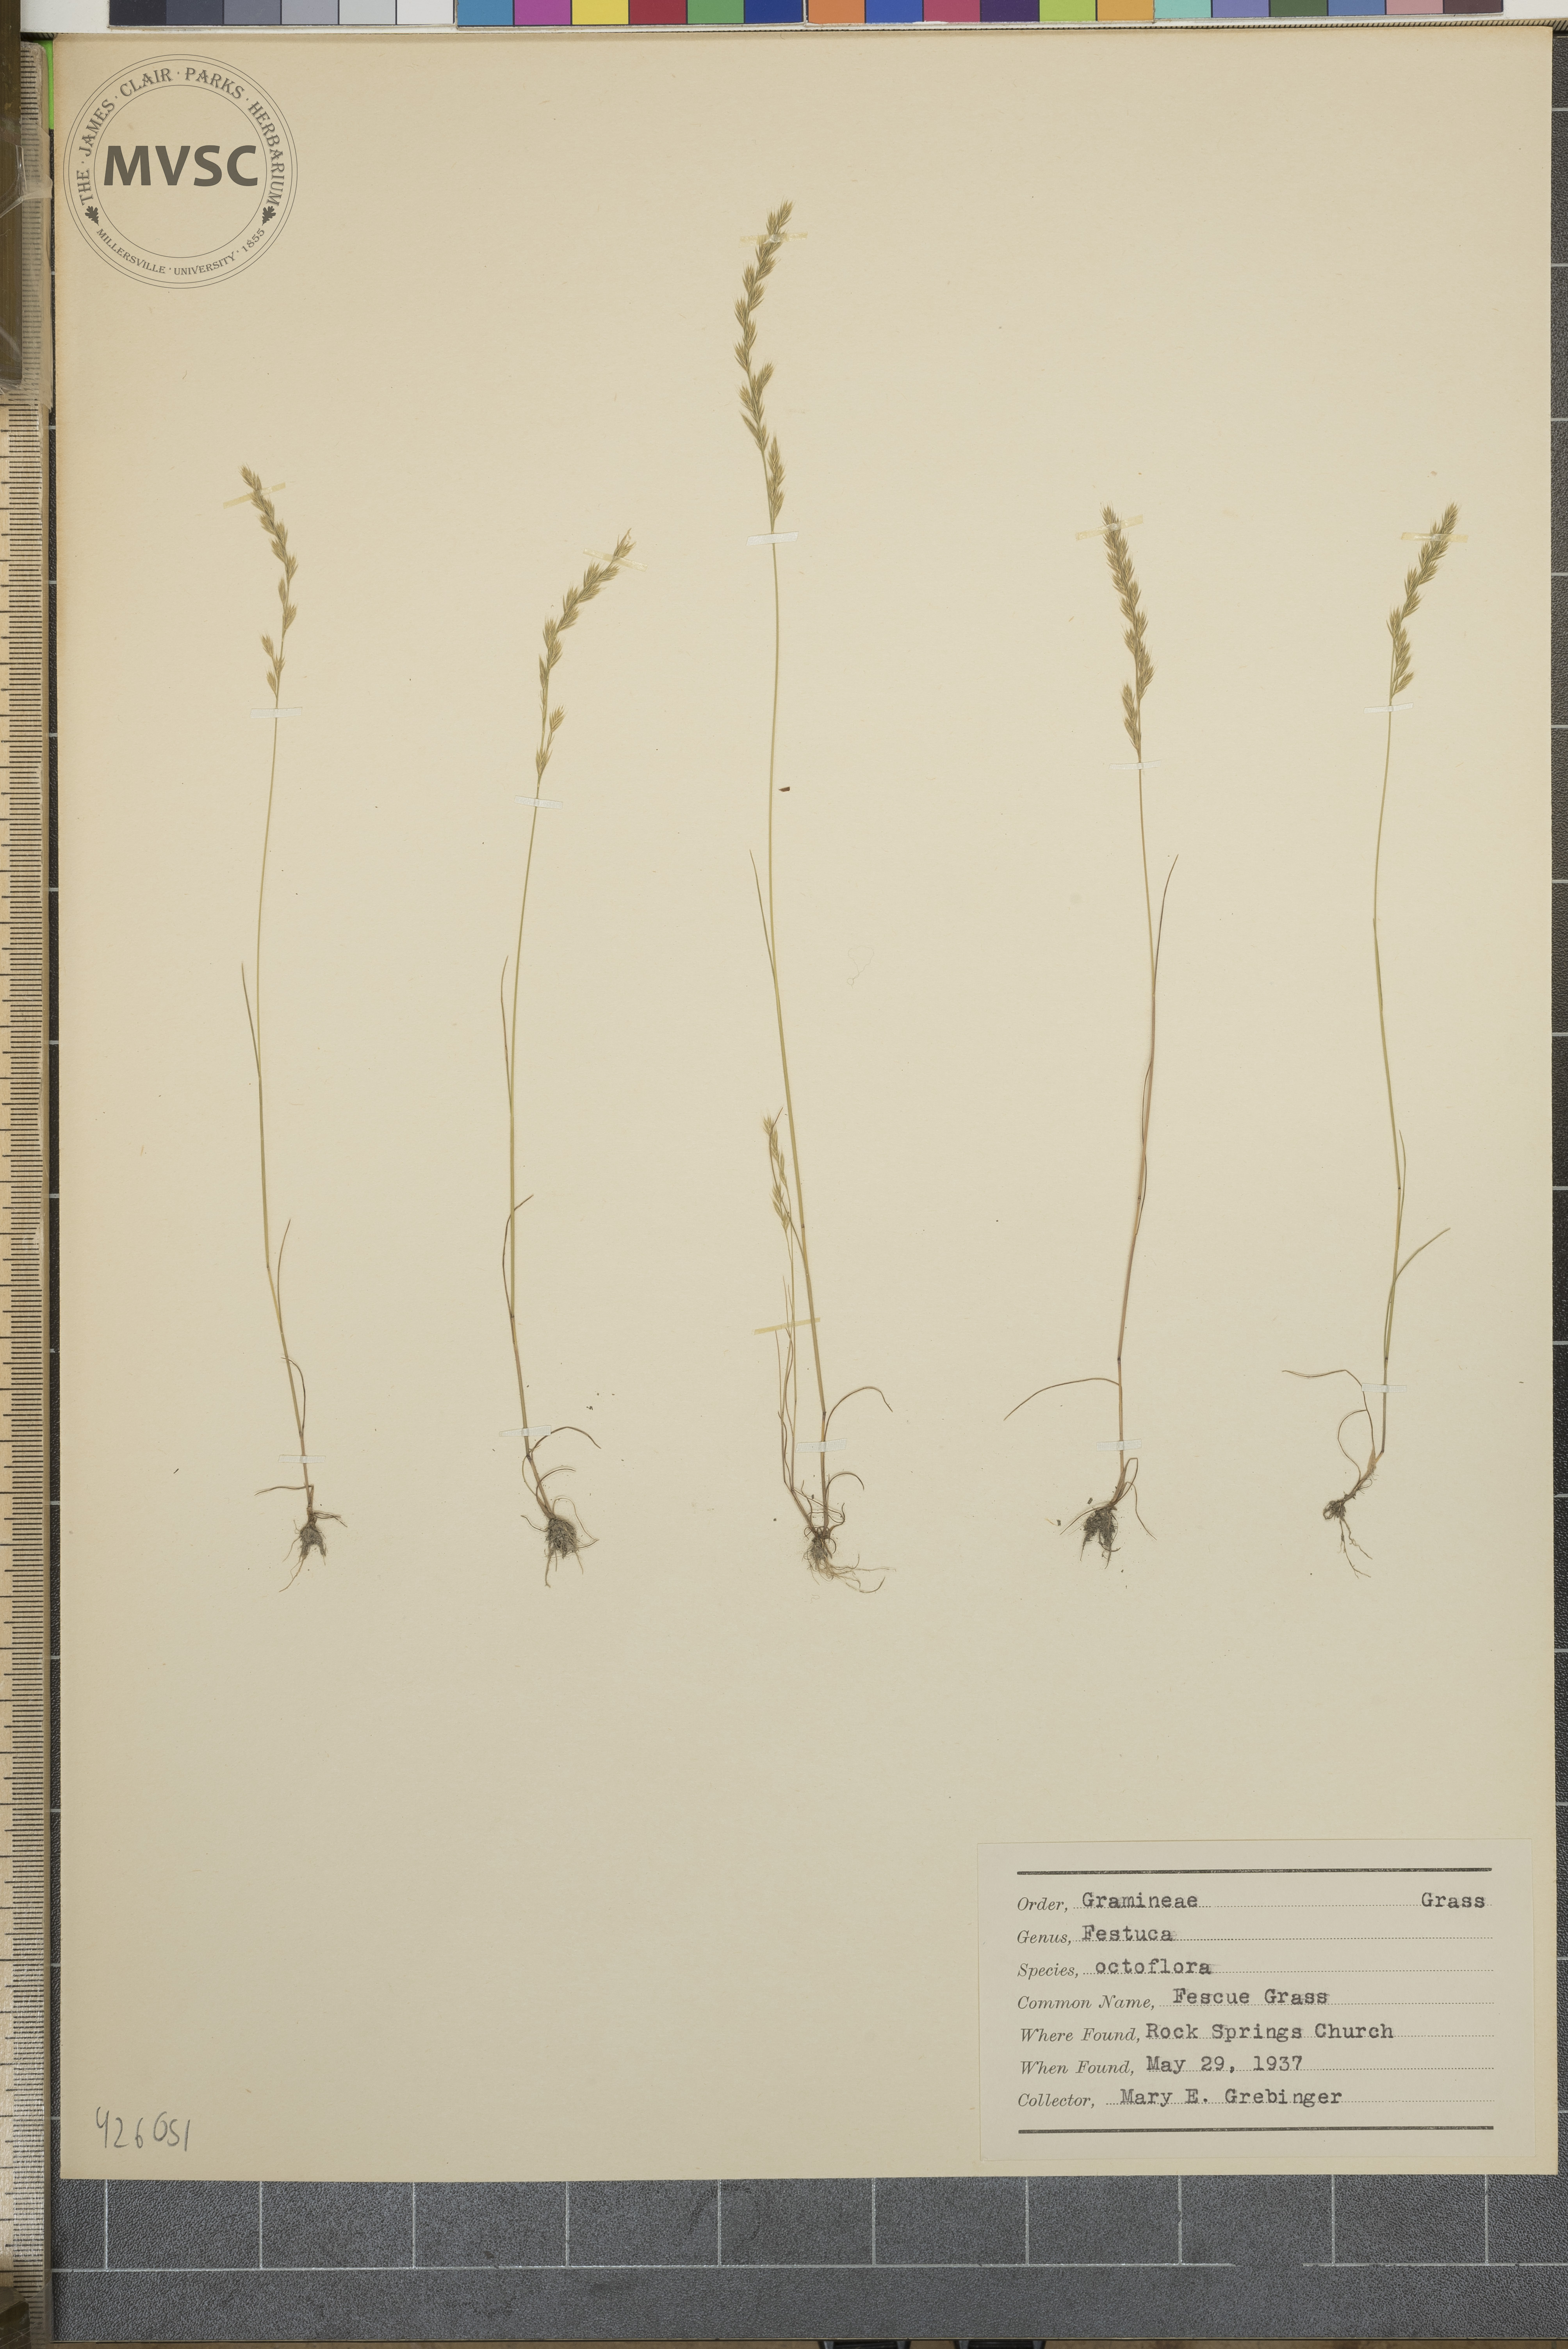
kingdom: Plantae
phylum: Tracheophyta
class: Liliopsida
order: Poales
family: Poaceae
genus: Festuca
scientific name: Festuca octoflora
